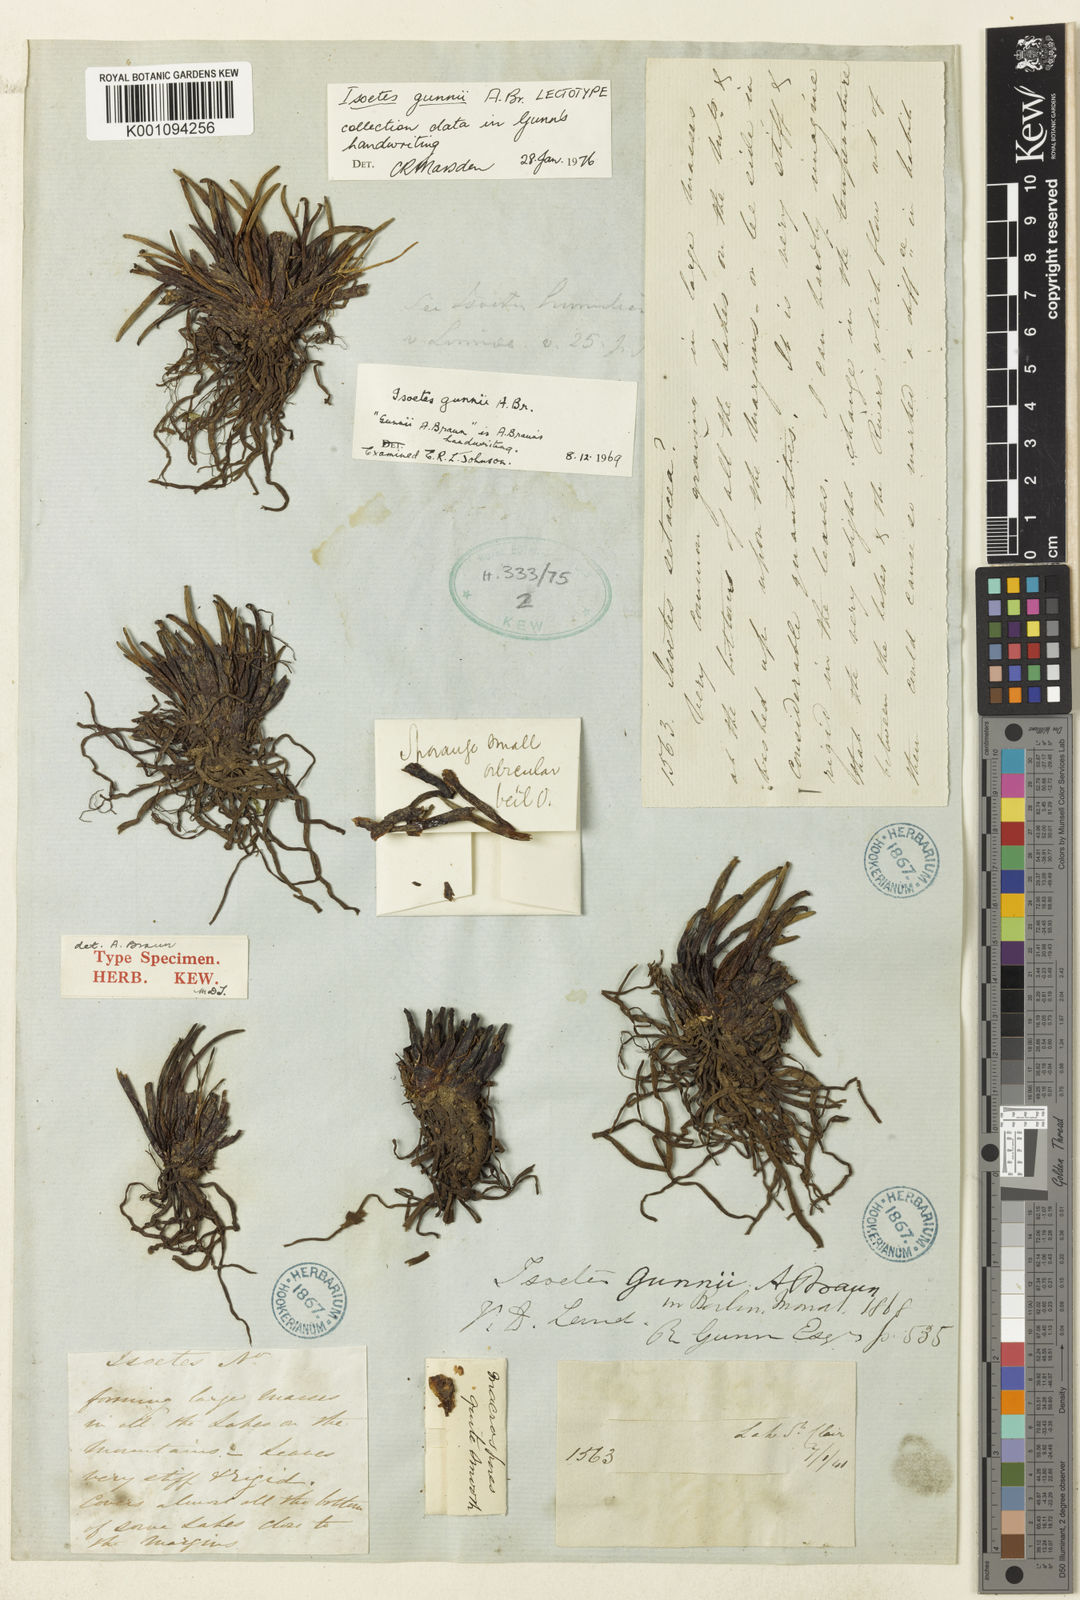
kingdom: Plantae
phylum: Tracheophyta
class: Lycopodiopsida
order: Isoetales
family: Isoetaceae
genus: Isoetes
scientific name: Isoetes gunnii
